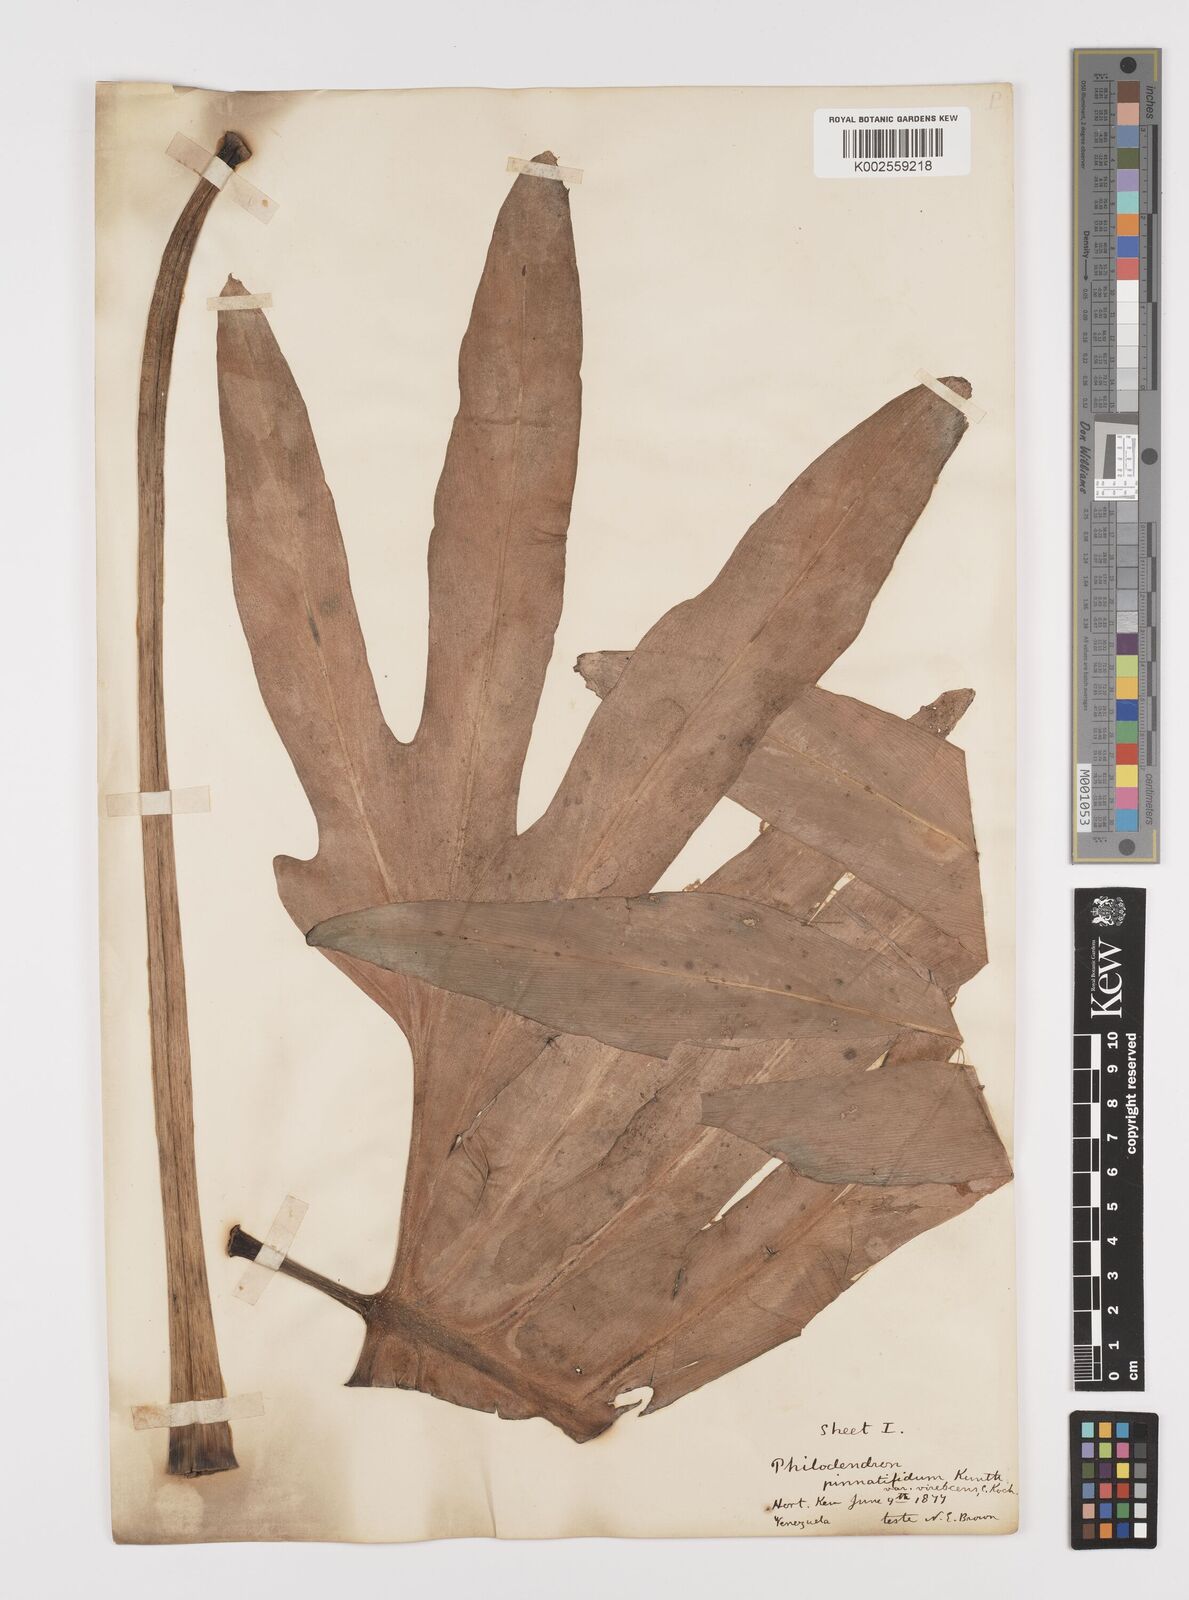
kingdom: Plantae
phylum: Tracheophyta
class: Liliopsida
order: Alismatales
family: Araceae
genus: Philodendron
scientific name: Philodendron pinnatifidum
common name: Comb-leaf philodendron
